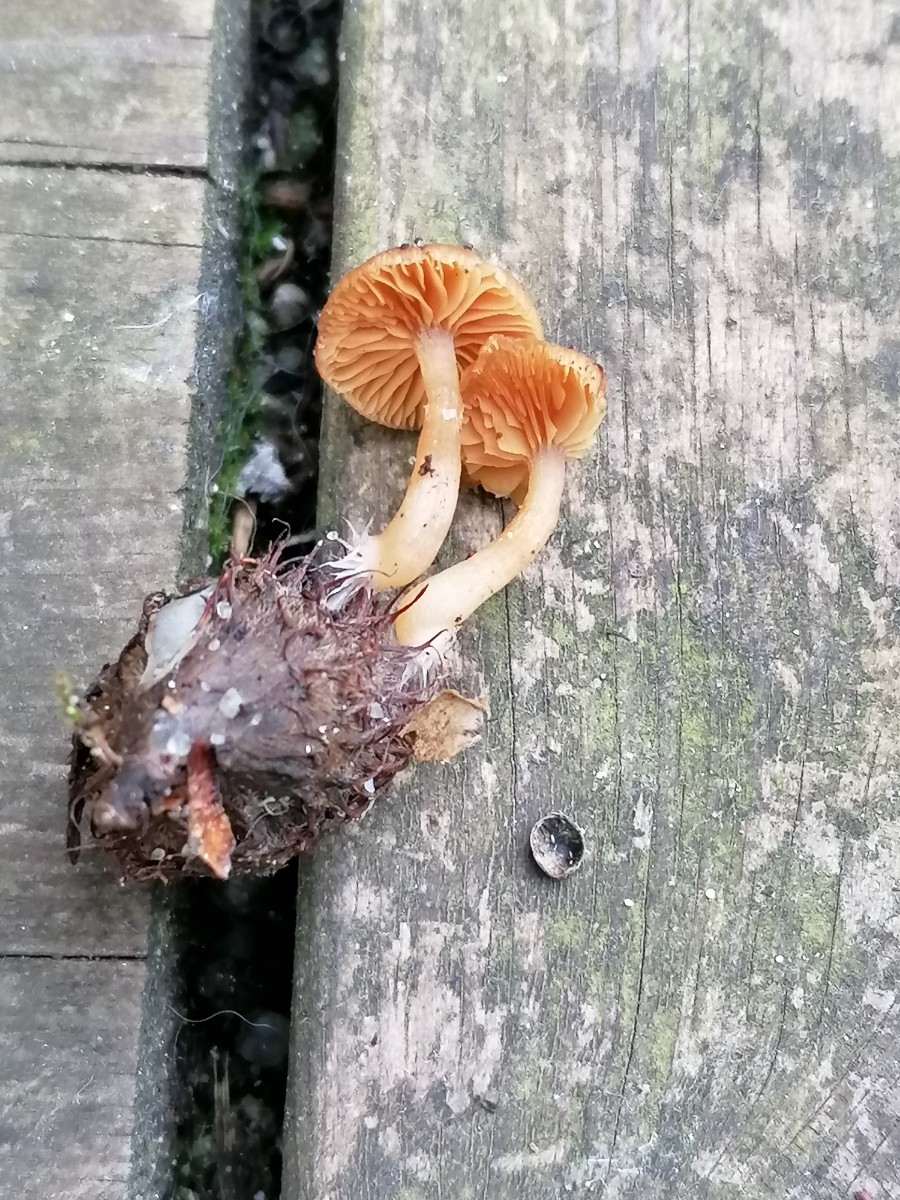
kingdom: Fungi
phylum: Basidiomycota
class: Agaricomycetes
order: Agaricales
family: Tubariaceae
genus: Tubaria
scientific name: Tubaria furfuracea
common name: kliddet fnughat
